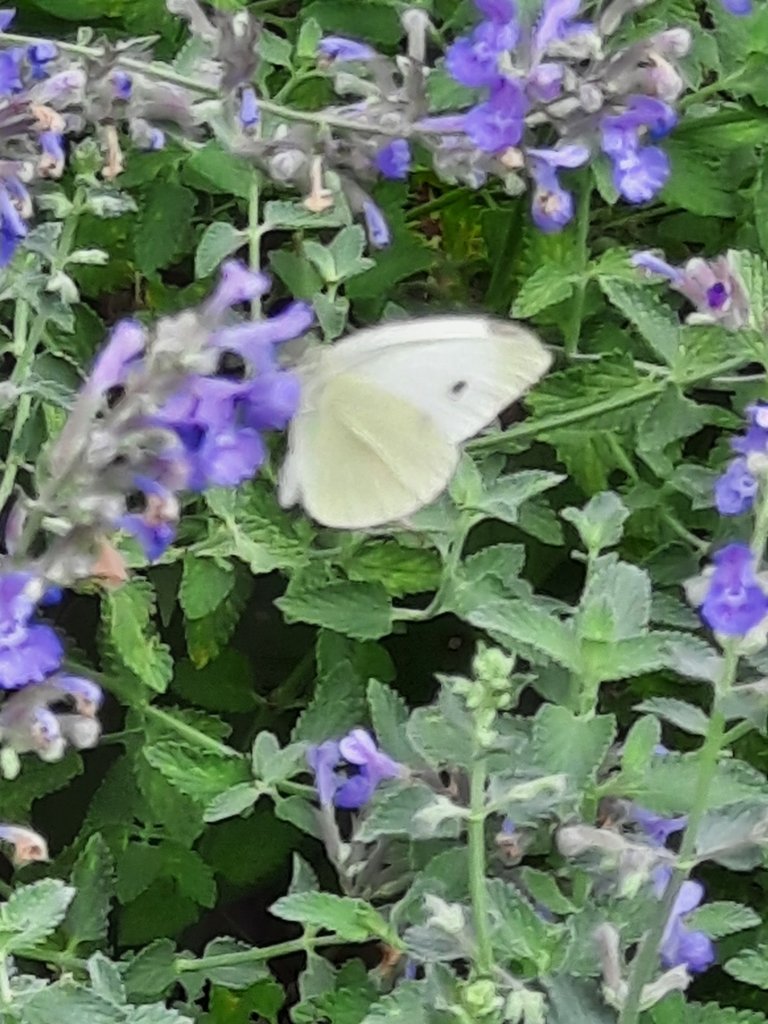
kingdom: Animalia
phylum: Arthropoda
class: Insecta
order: Lepidoptera
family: Pieridae
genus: Pieris
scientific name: Pieris rapae
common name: Cabbage White
